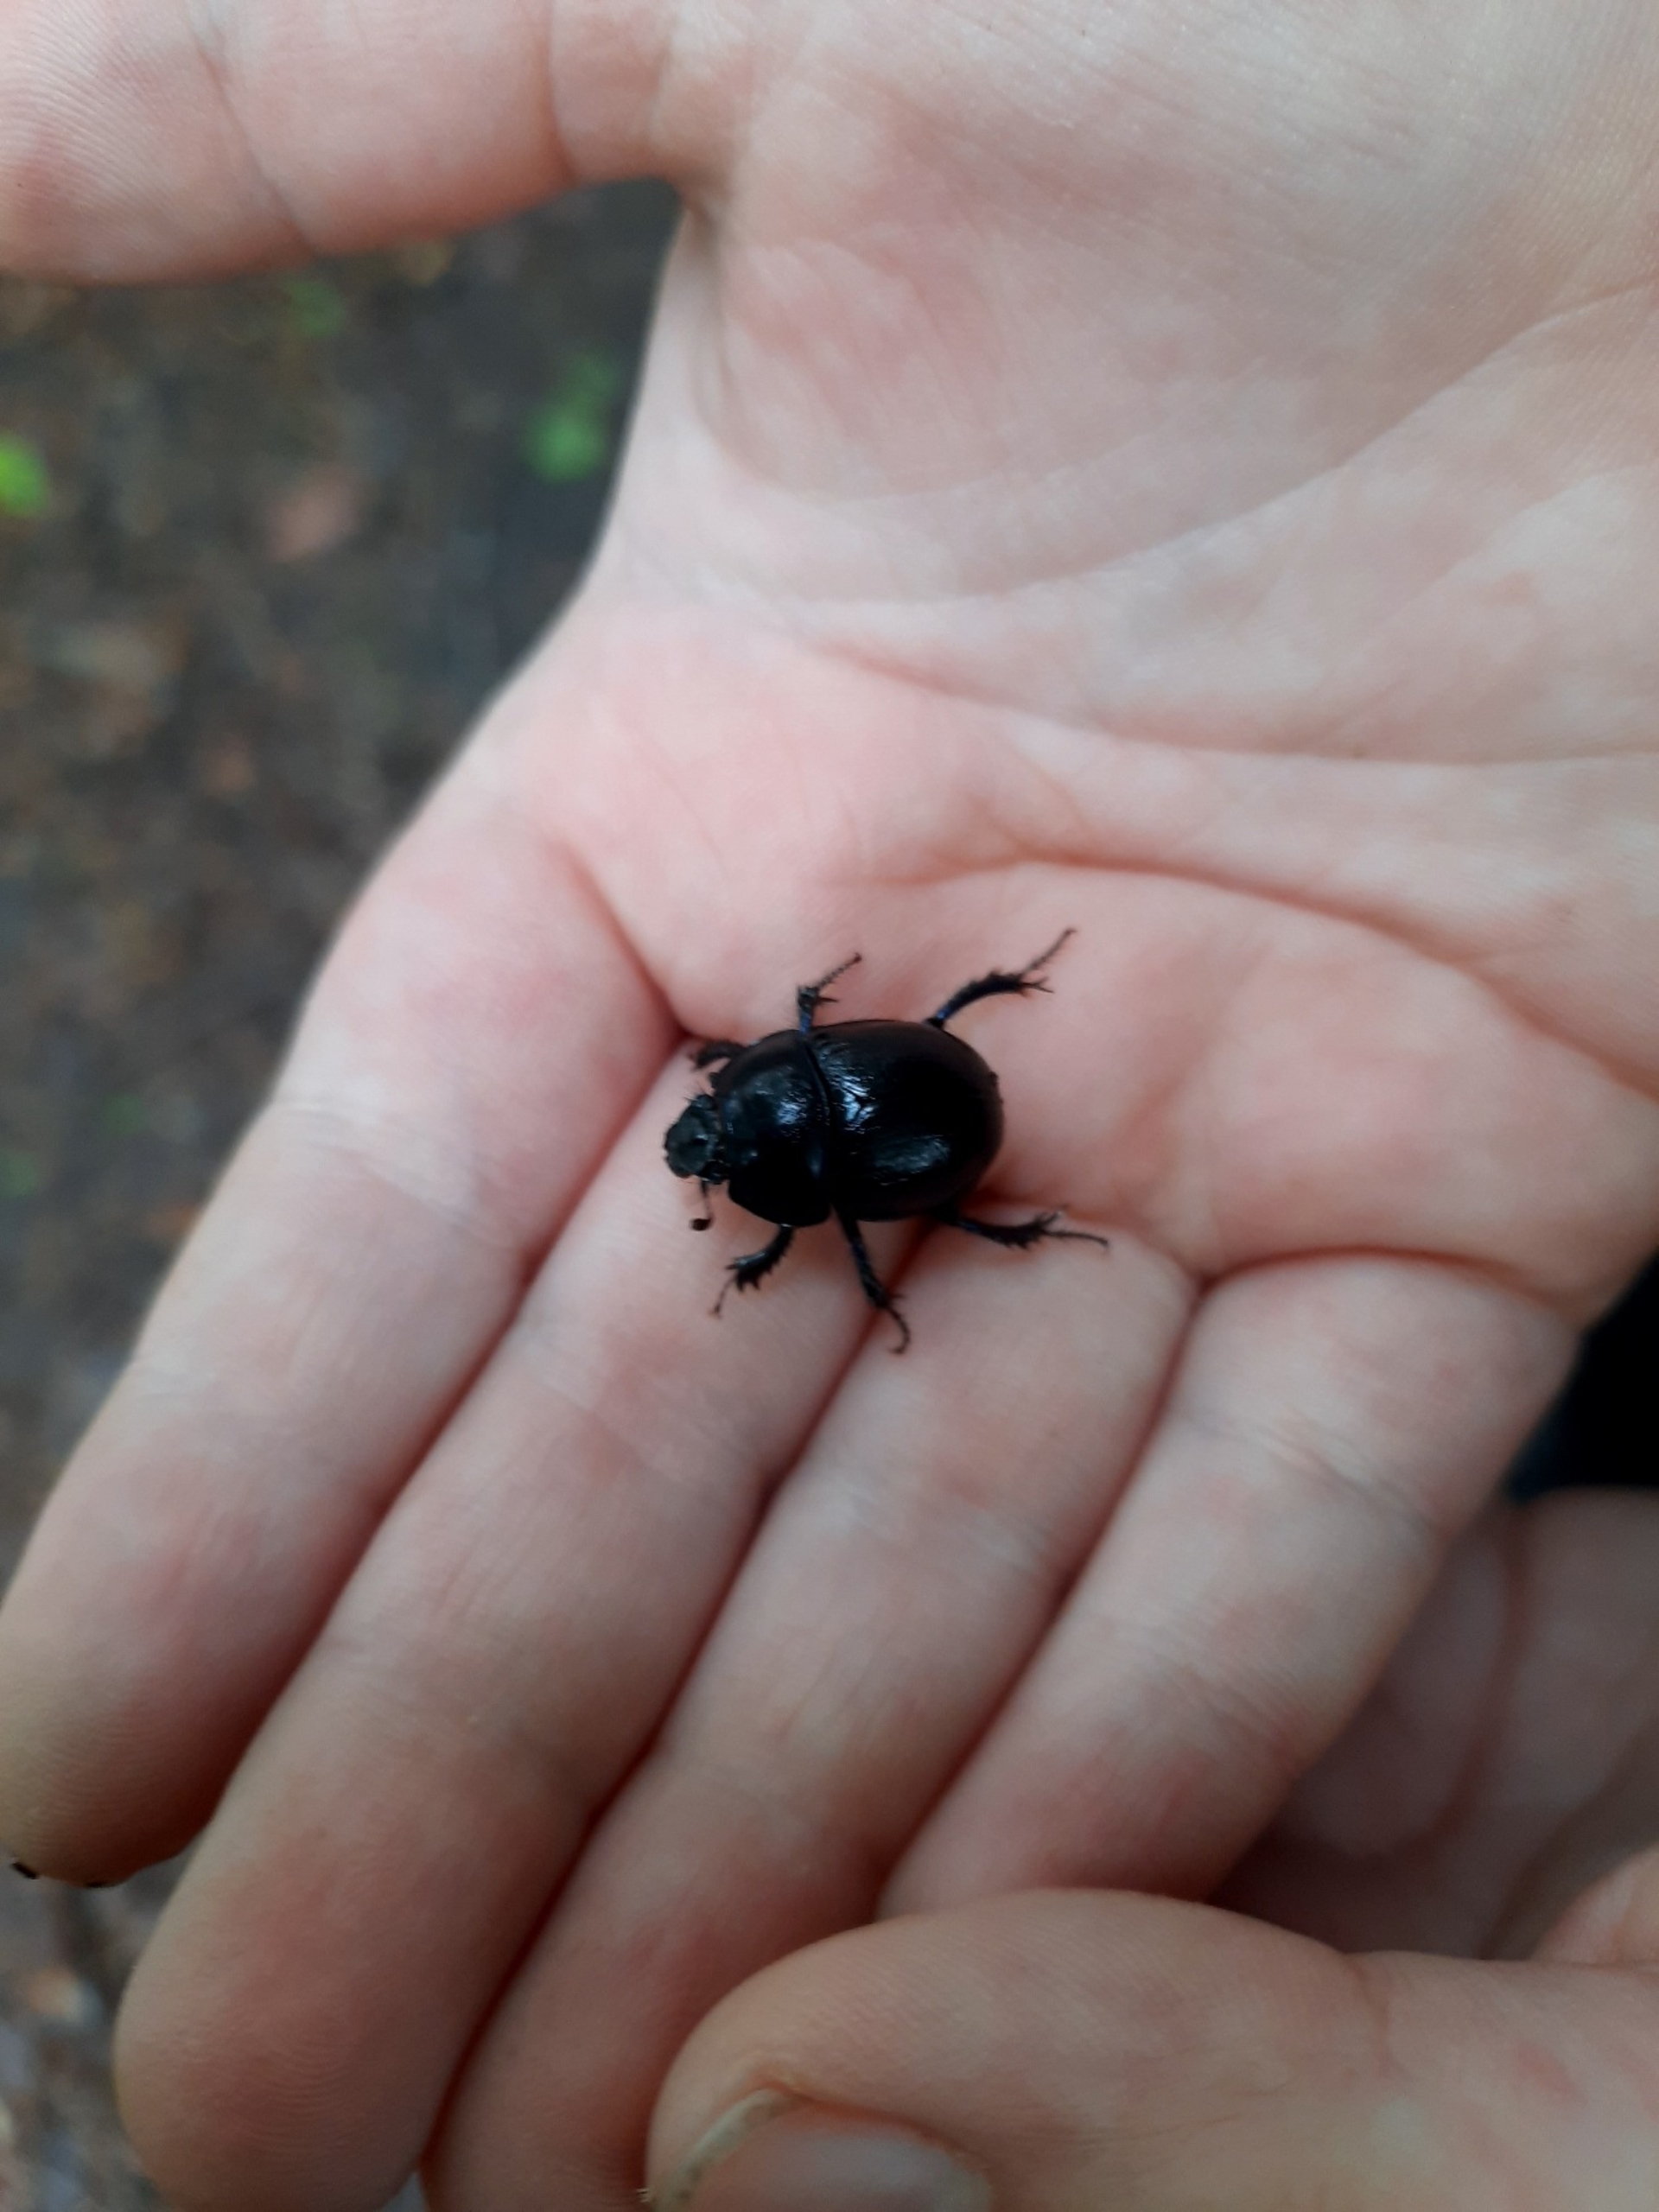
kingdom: Animalia
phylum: Arthropoda
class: Insecta
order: Coleoptera
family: Geotrupidae
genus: Anoplotrupes
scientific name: Anoplotrupes stercorosus
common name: Skovskarnbasse
